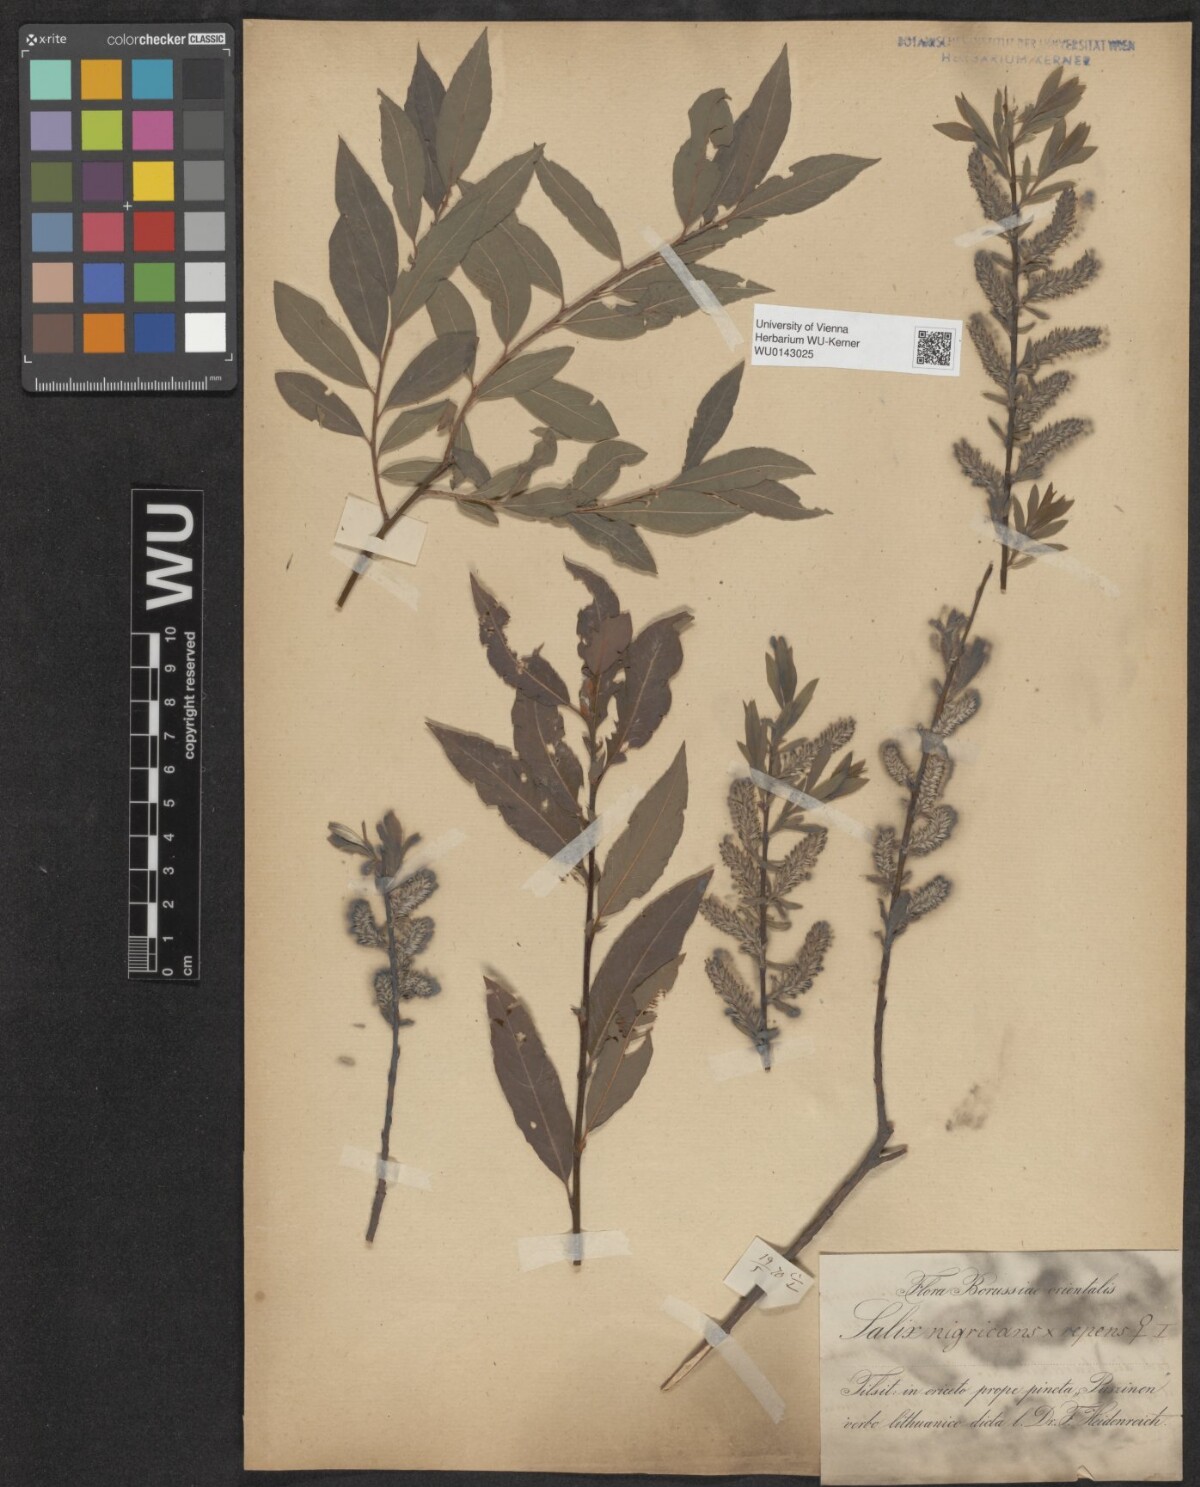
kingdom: Plantae
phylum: Tracheophyta
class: Magnoliopsida
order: Malpighiales
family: Salicaceae
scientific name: Salicaceae
